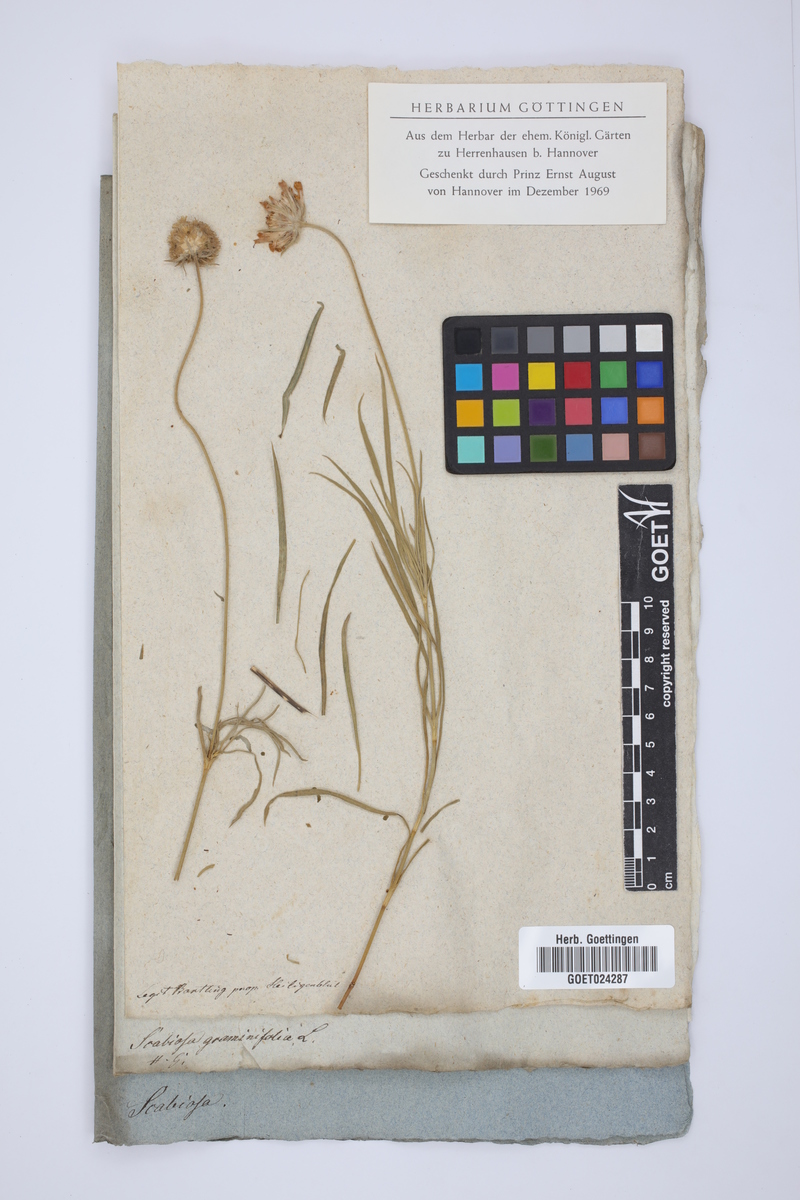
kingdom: Plantae
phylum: Tracheophyta
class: Magnoliopsida
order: Dipsacales
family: Caprifoliaceae
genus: Lomelosia
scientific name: Lomelosia graminifolia
